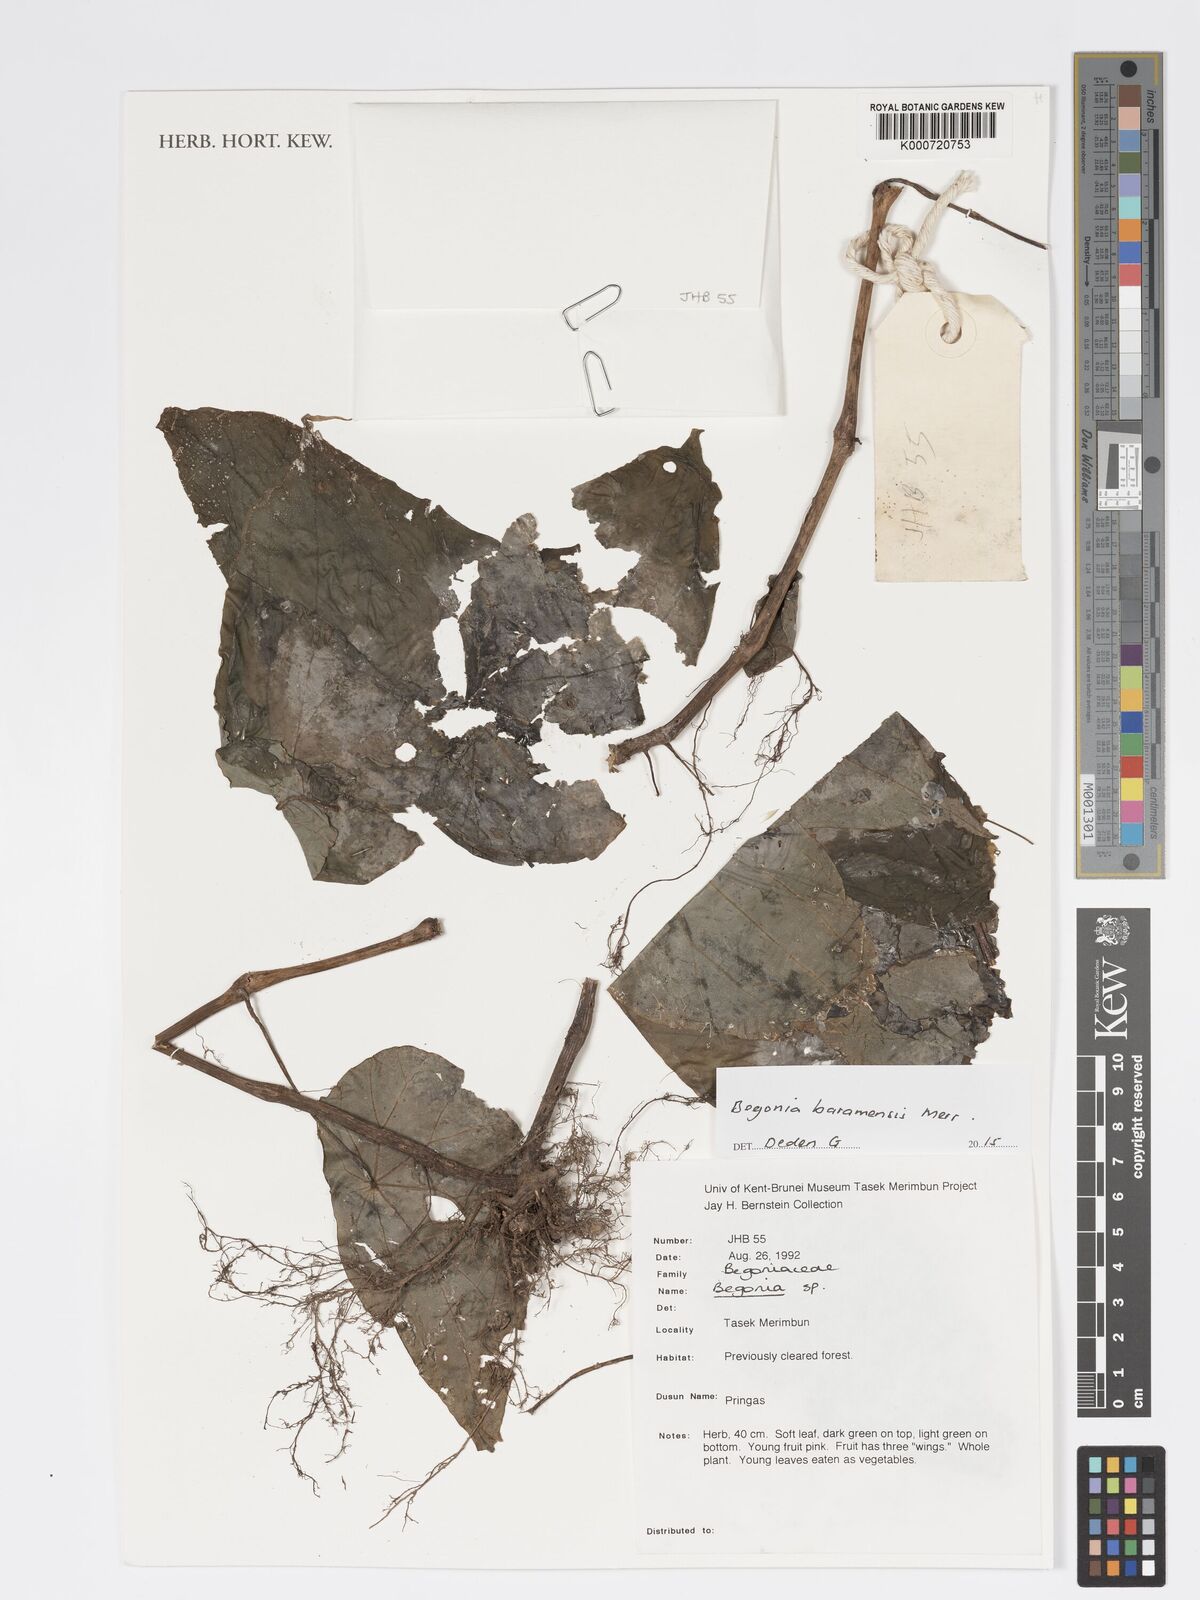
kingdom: Plantae
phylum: Tracheophyta
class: Magnoliopsida
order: Cucurbitales
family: Begoniaceae
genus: Begonia
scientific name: Begonia baramensis
